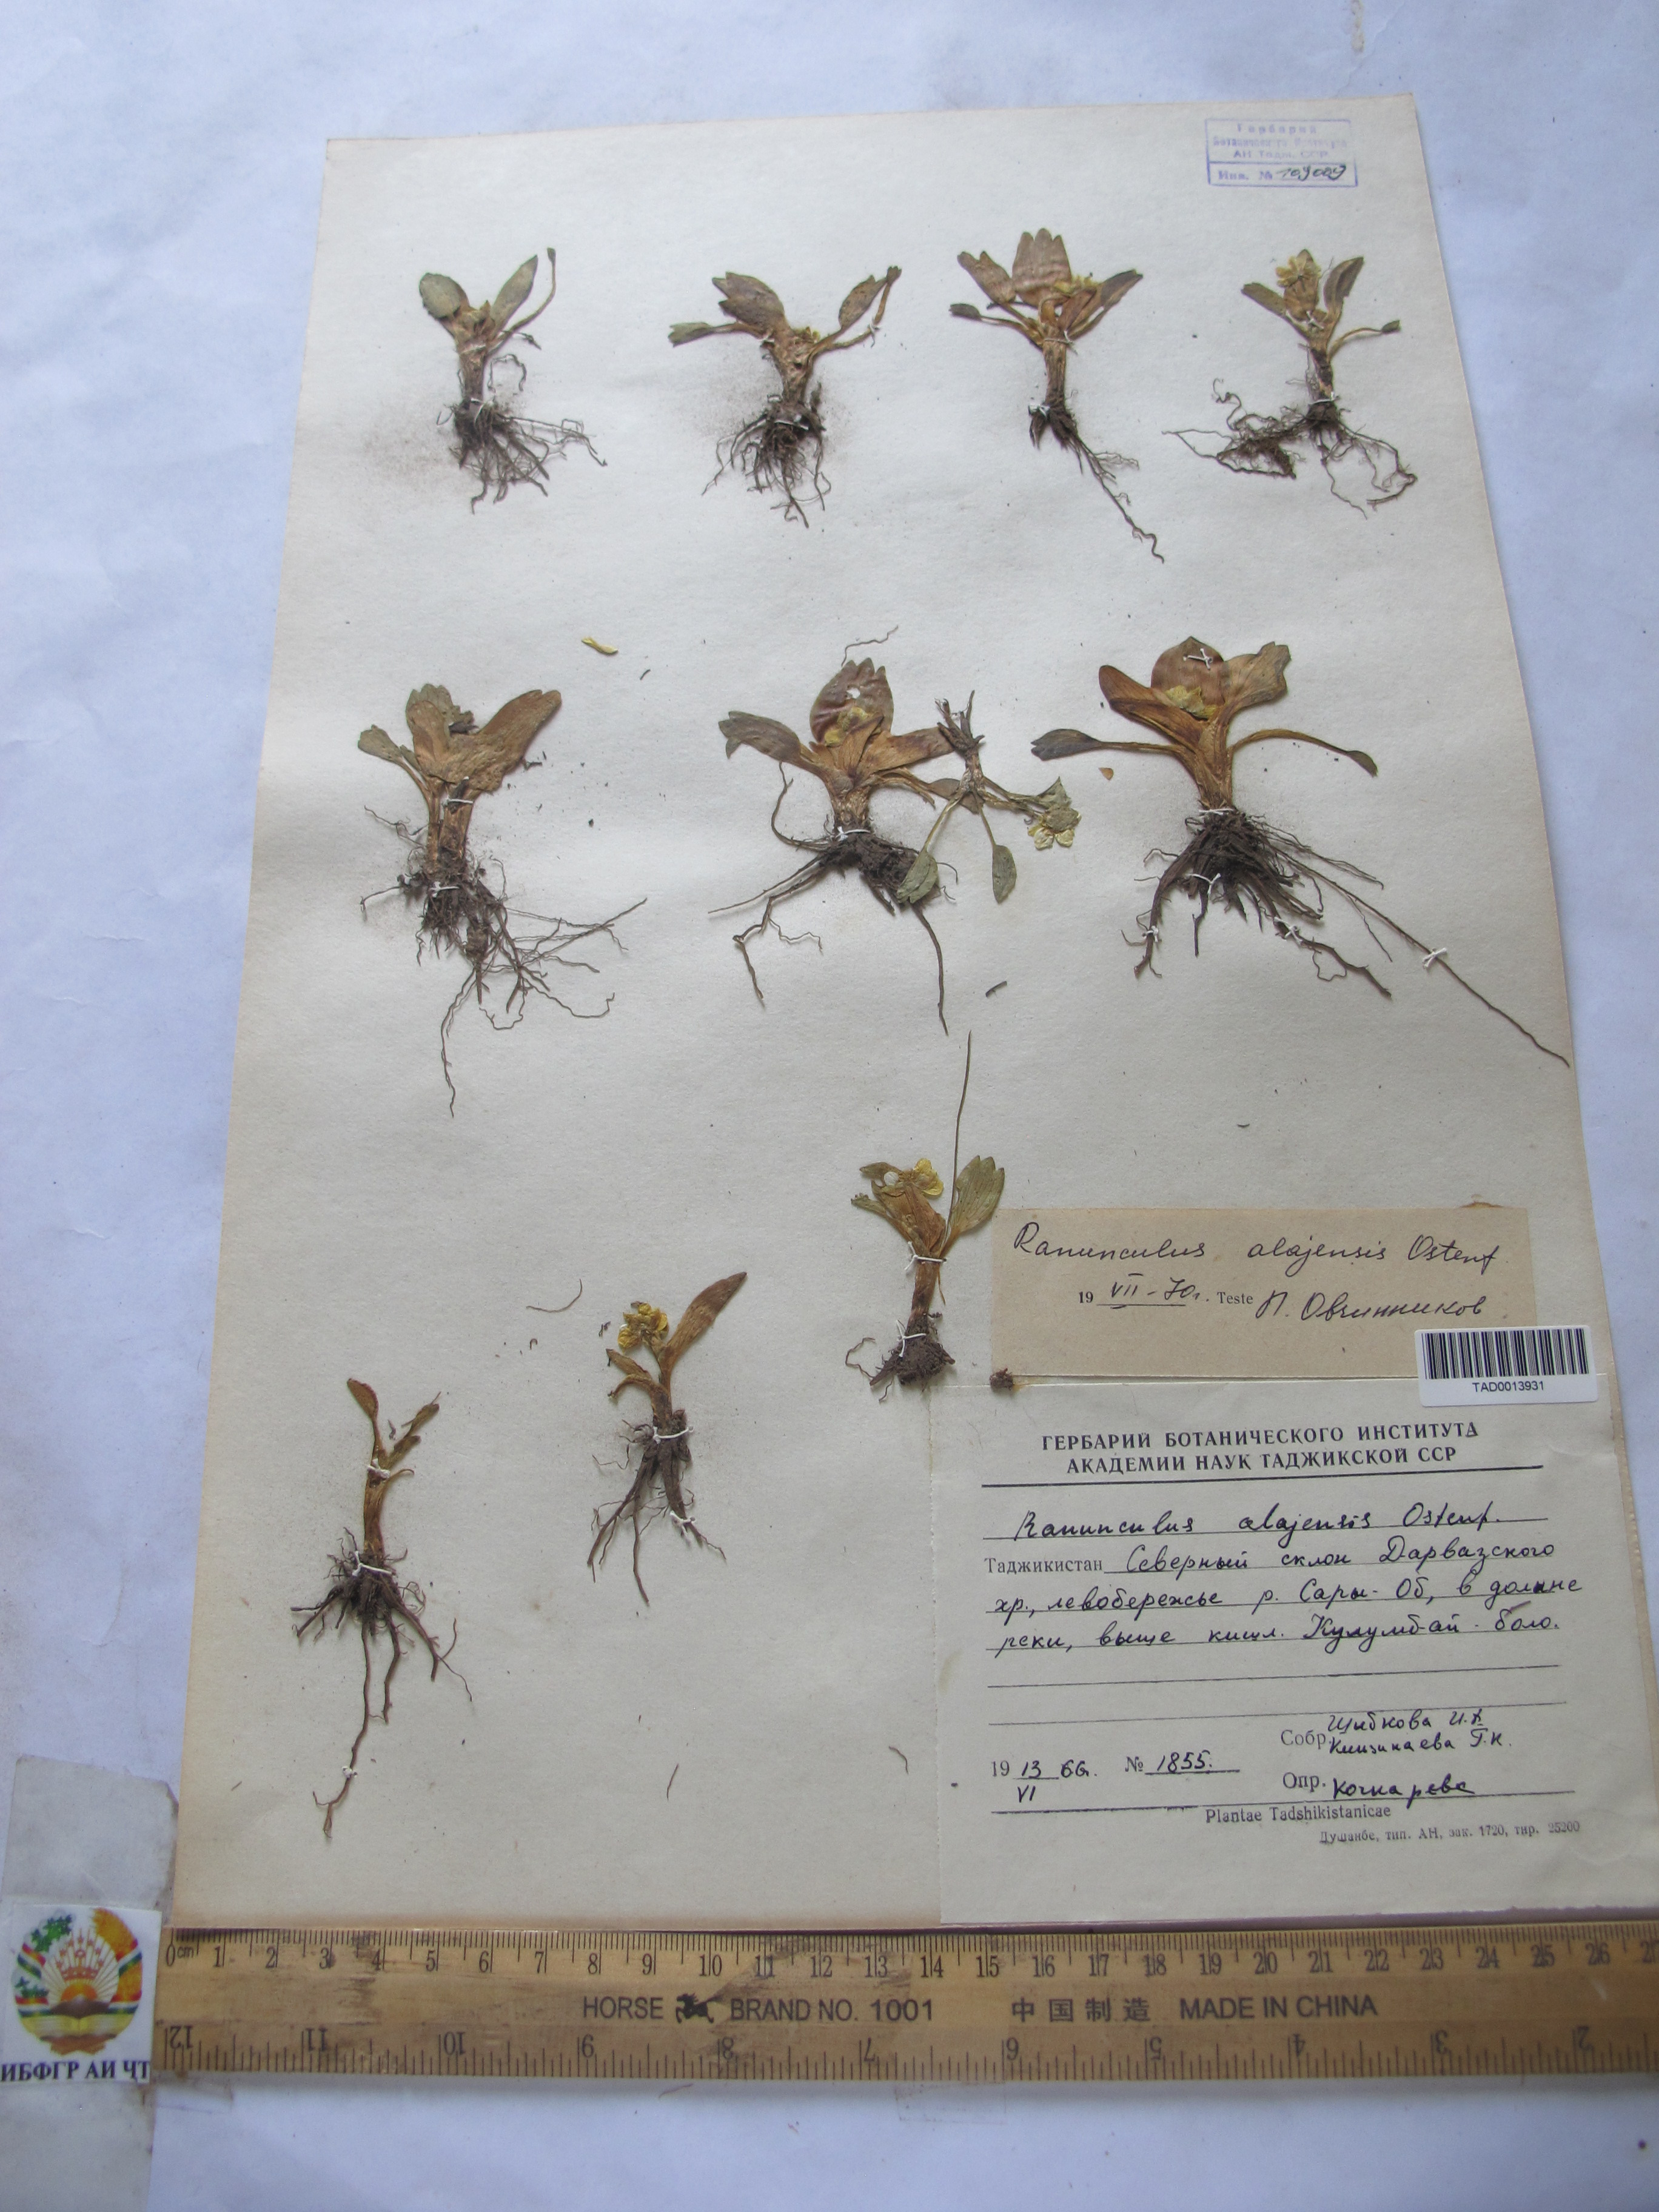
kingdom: Plantae
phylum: Tracheophyta
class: Magnoliopsida
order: Ranunculales
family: Ranunculaceae
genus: Ranunculus
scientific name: Ranunculus alaiensis
